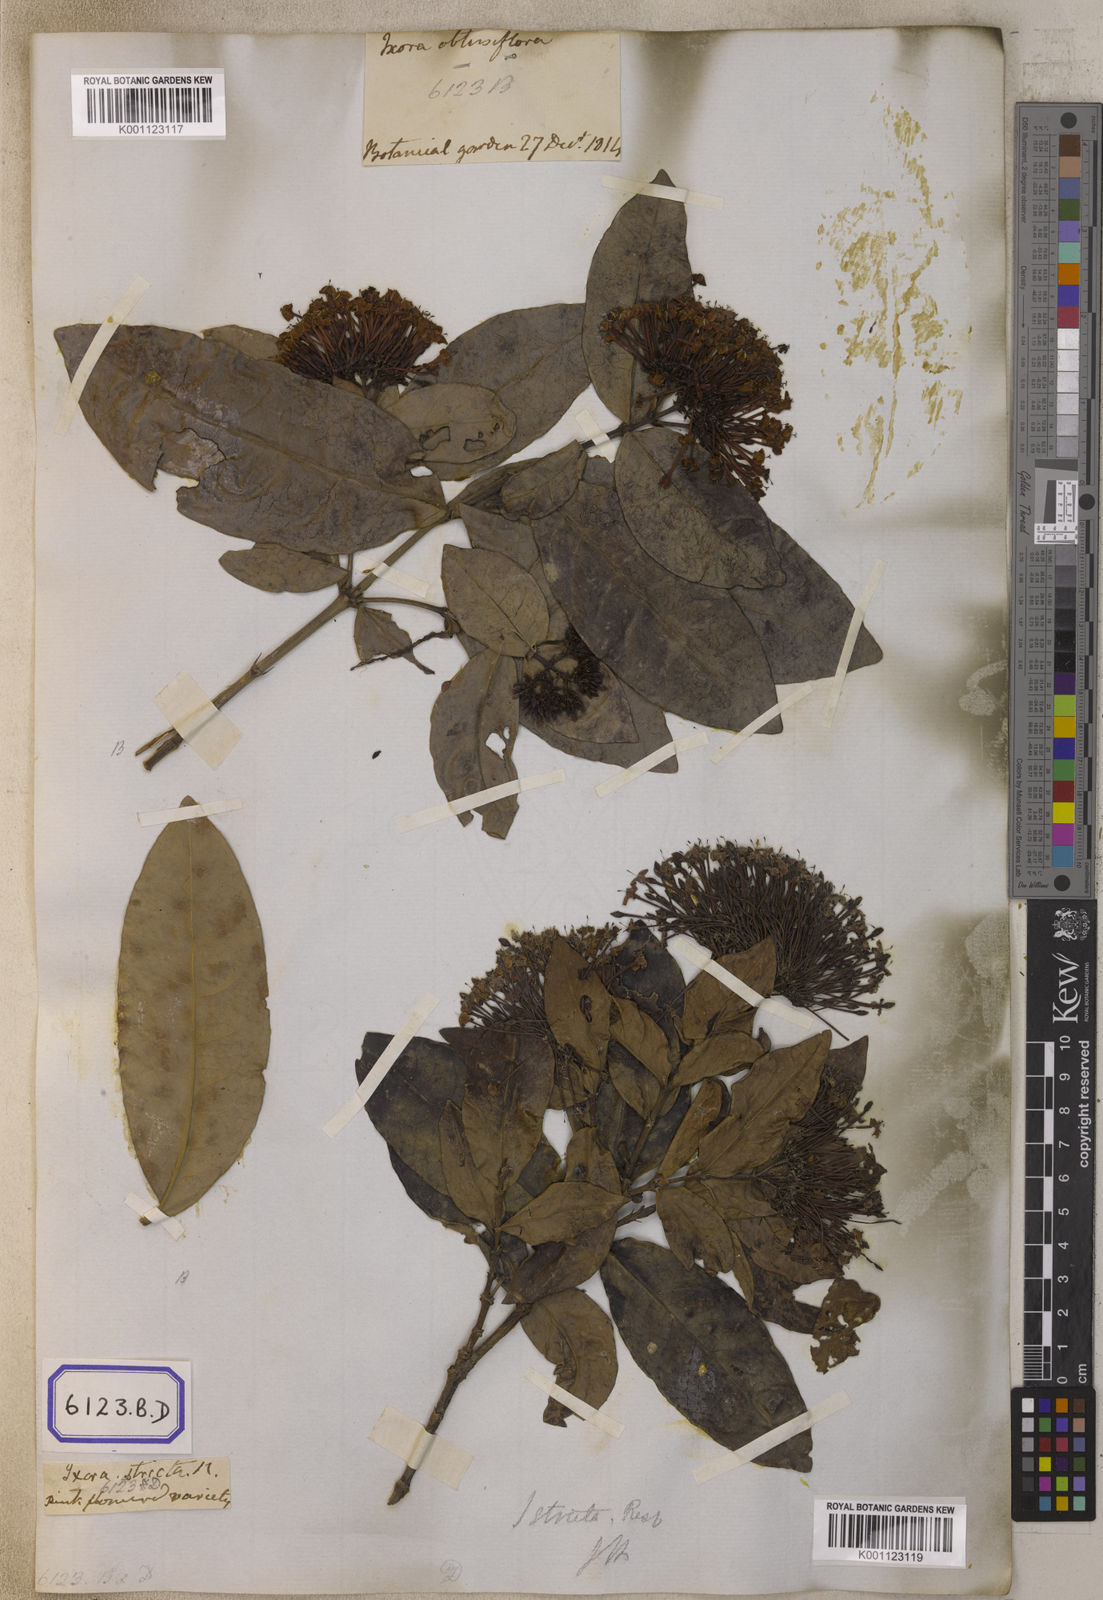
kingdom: Plantae
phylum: Tracheophyta
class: Magnoliopsida
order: Gentianales
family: Rubiaceae
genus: Ixora
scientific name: Ixora
